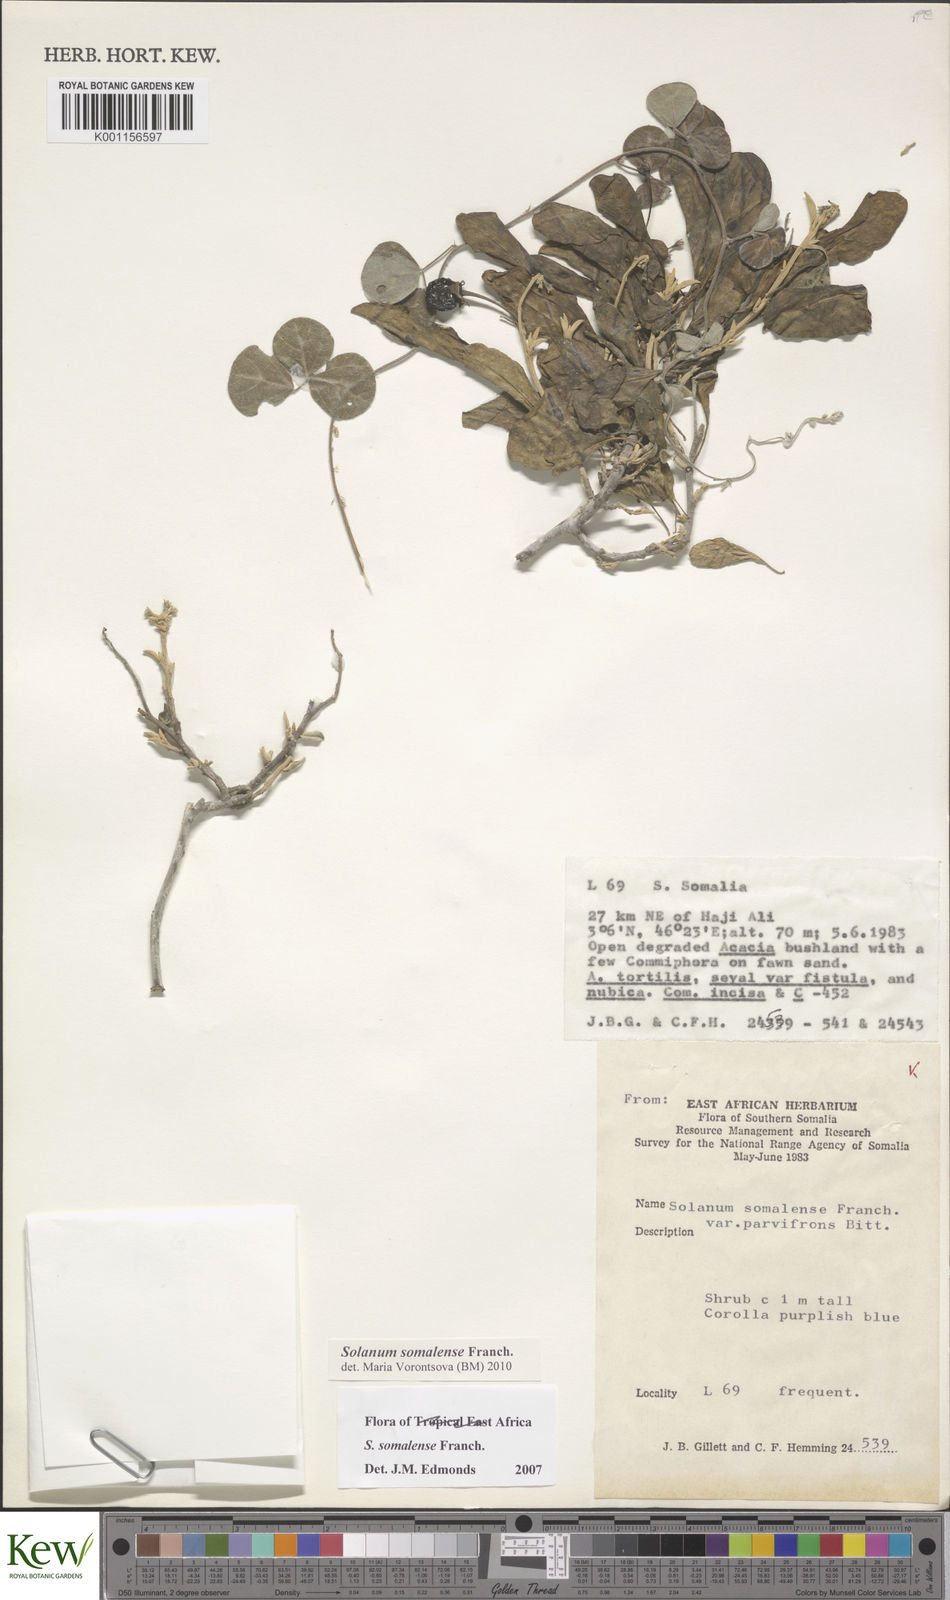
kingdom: Plantae
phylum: Tracheophyta
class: Magnoliopsida
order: Solanales
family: Solanaceae
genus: Solanum
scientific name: Solanum somalense
